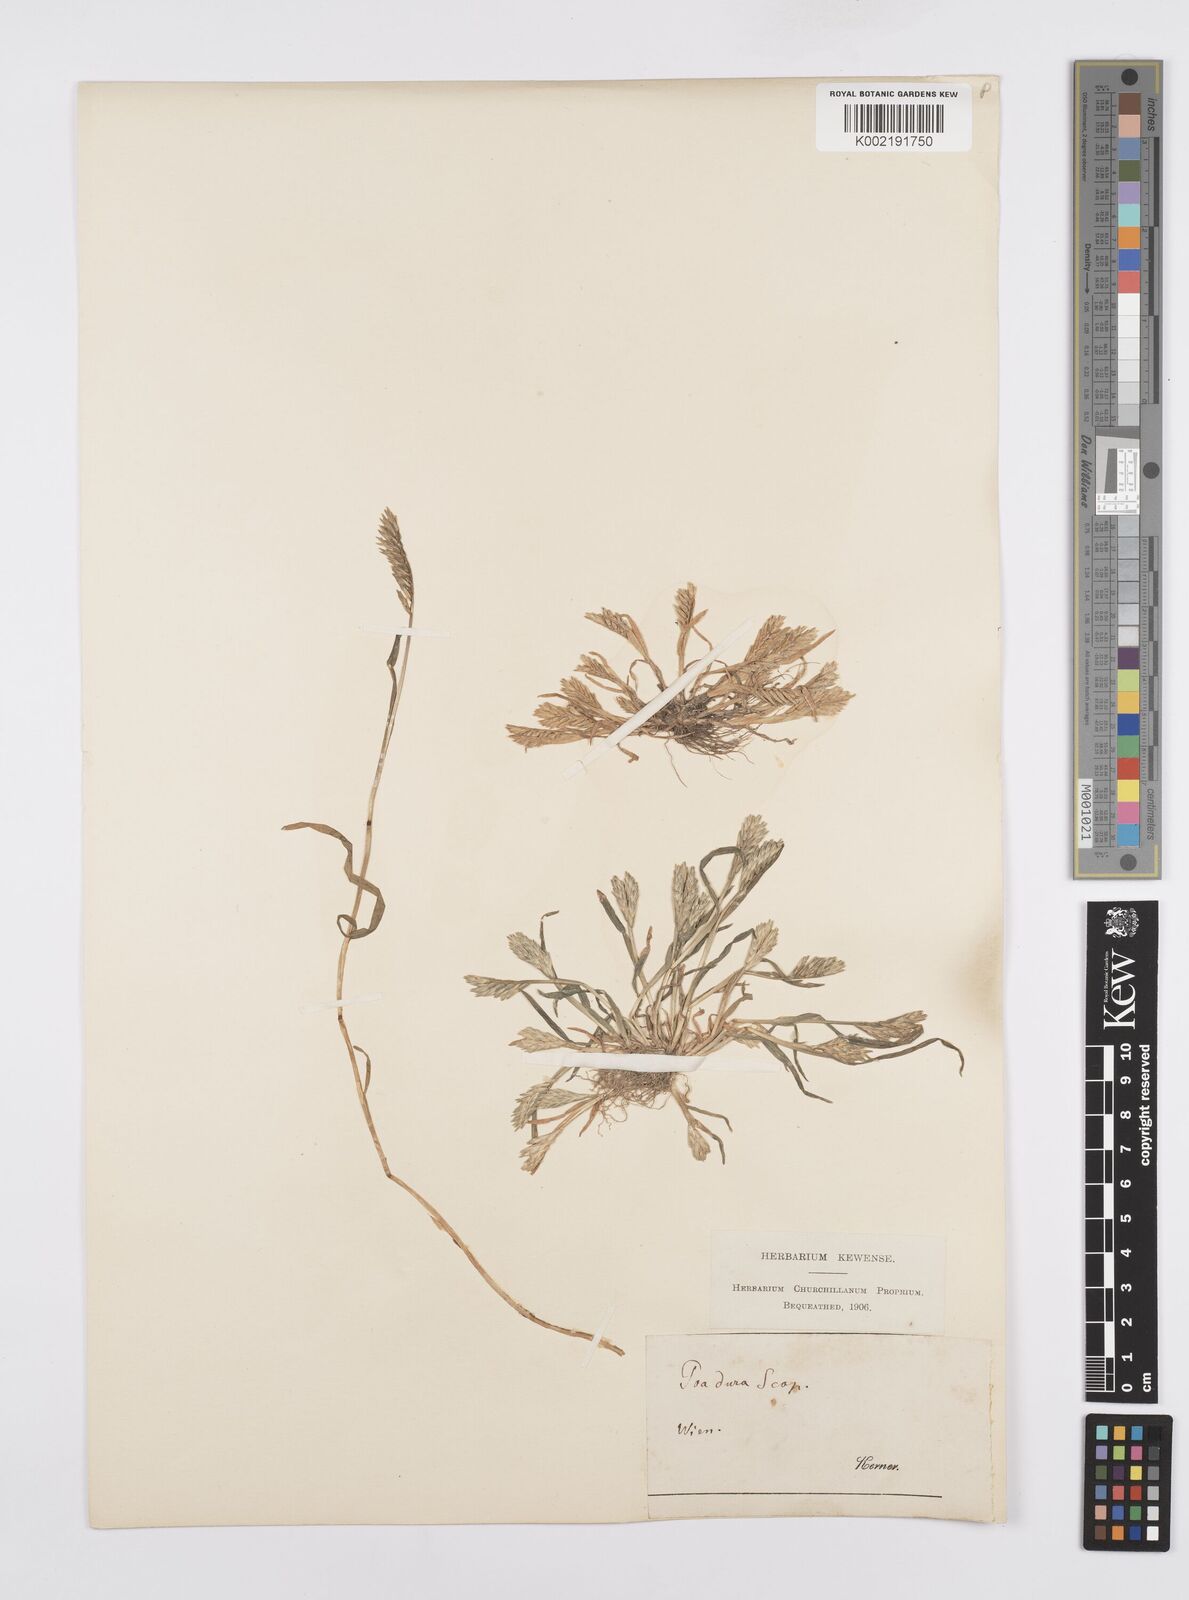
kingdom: Plantae
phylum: Tracheophyta
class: Liliopsida
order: Poales
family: Poaceae
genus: Sclerochloa
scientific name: Sclerochloa dura
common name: Common hardgrass
